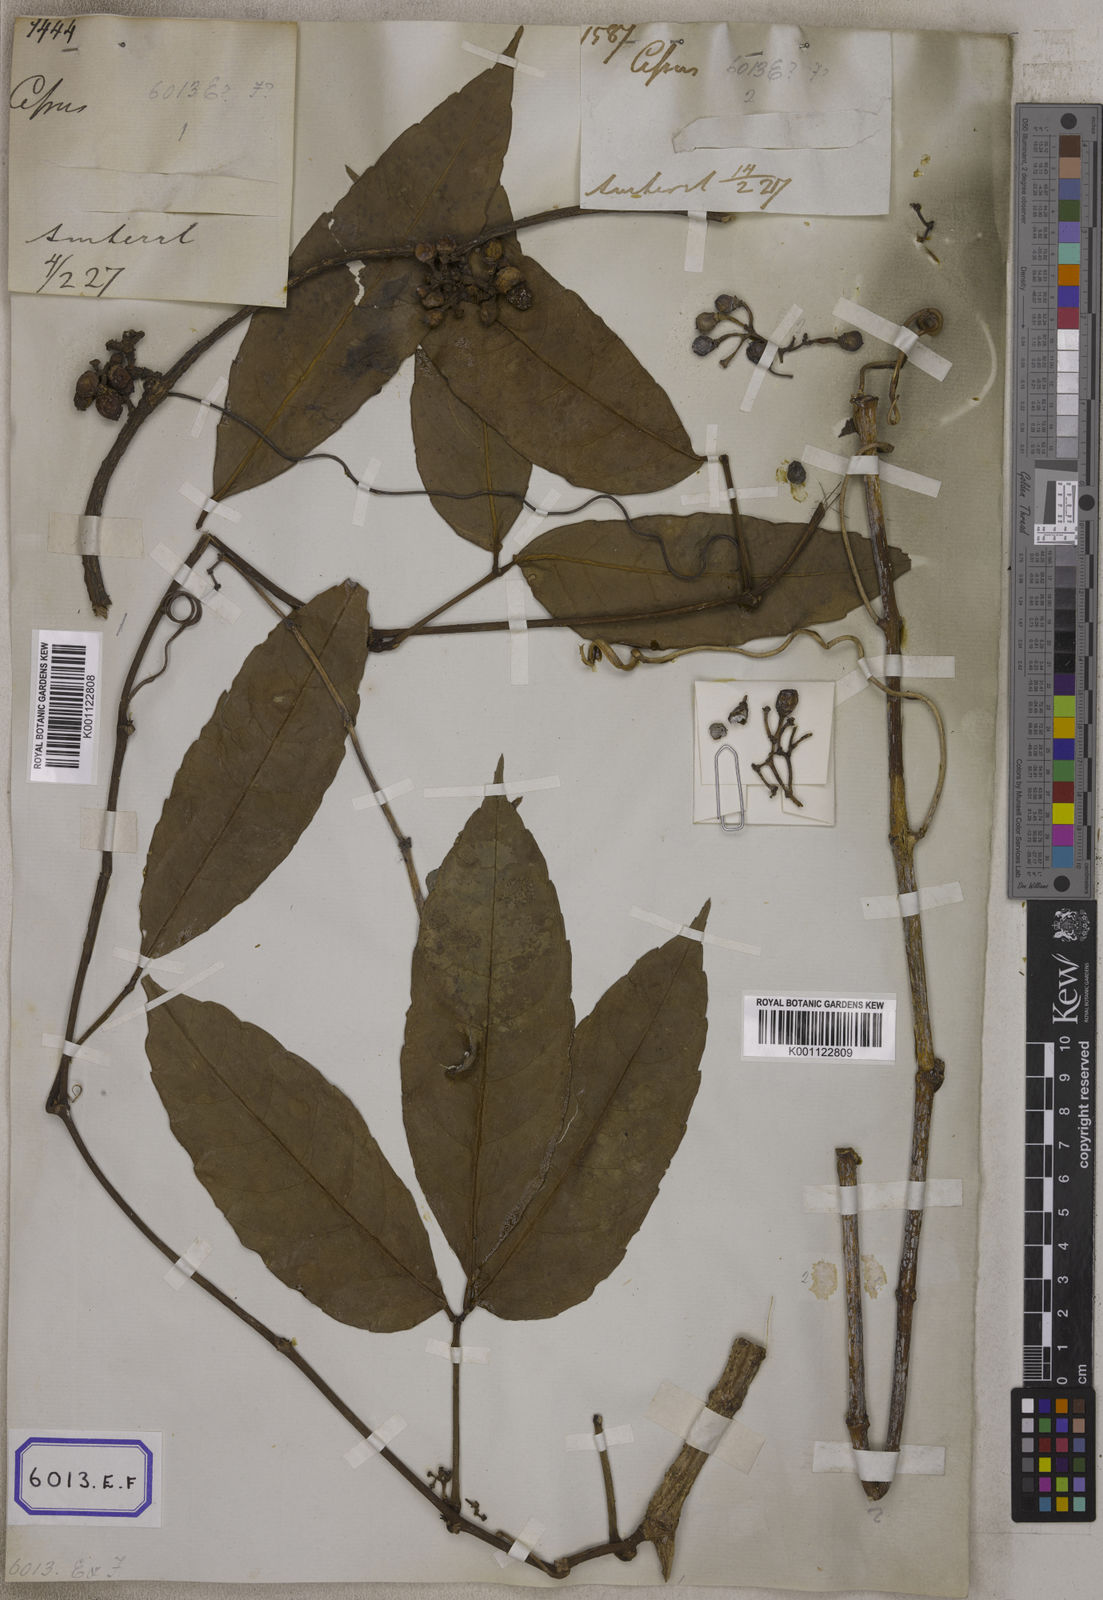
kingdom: Plantae
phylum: Tracheophyta
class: Magnoliopsida
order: Vitales
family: Vitaceae
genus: Vitis
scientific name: Vitis
